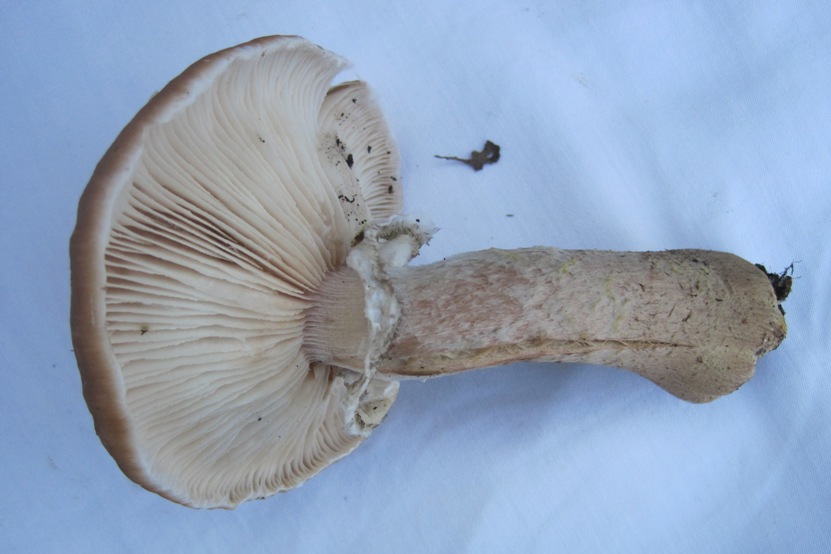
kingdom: Fungi
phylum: Basidiomycota
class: Agaricomycetes
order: Agaricales
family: Physalacriaceae
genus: Armillaria
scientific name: Armillaria lutea
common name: køllestokket honningsvamp
